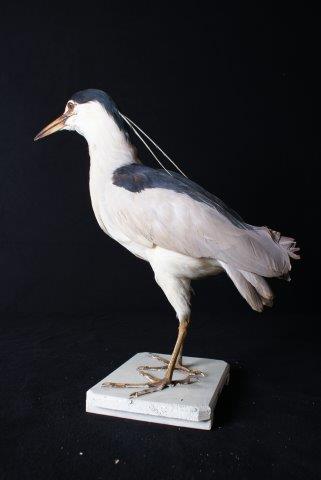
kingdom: Animalia
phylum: Chordata
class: Aves
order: Pelecaniformes
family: Ardeidae
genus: Nycticorax
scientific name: Nycticorax nycticorax
